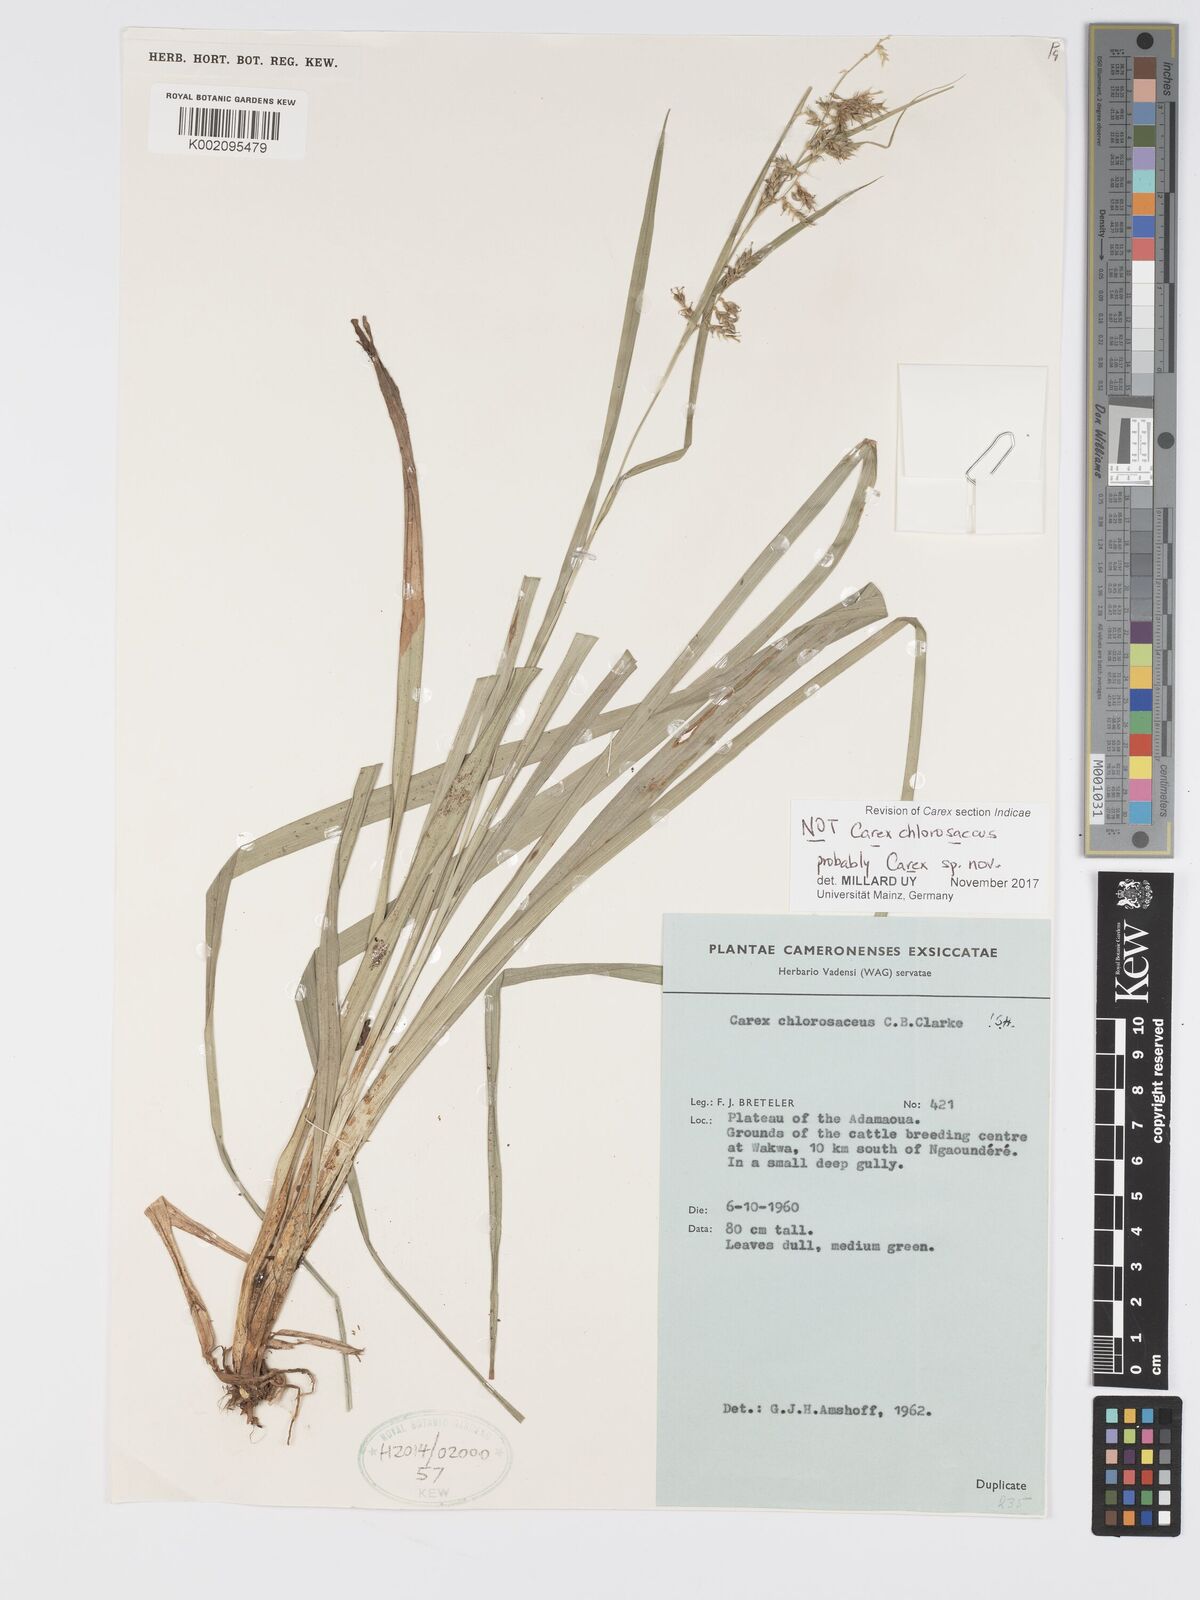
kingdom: Plantae
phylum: Tracheophyta
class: Liliopsida
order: Poales
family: Cyperaceae
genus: Carex
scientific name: Carex
